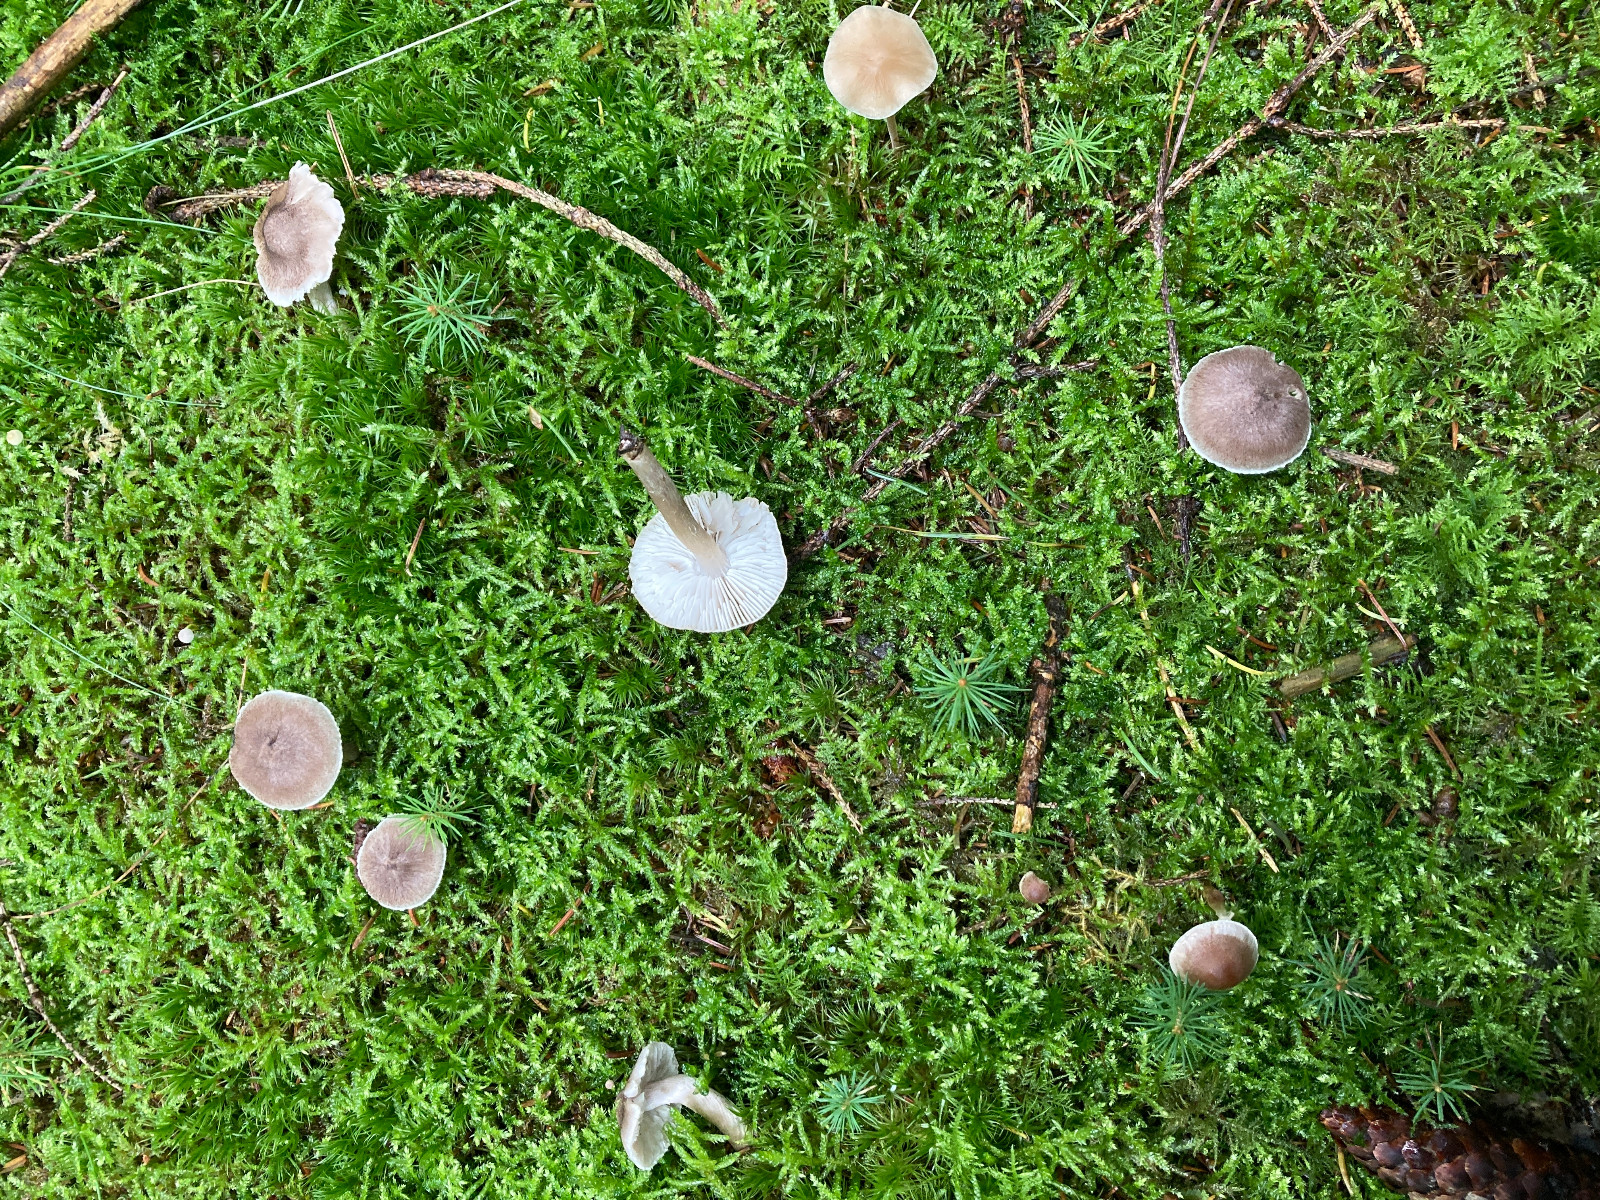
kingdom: Fungi
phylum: Basidiomycota
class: Agaricomycetes
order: Agaricales
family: Tricholomataceae
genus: Tricholoma
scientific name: Tricholoma scalpturatum
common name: gulplettet ridderhat
